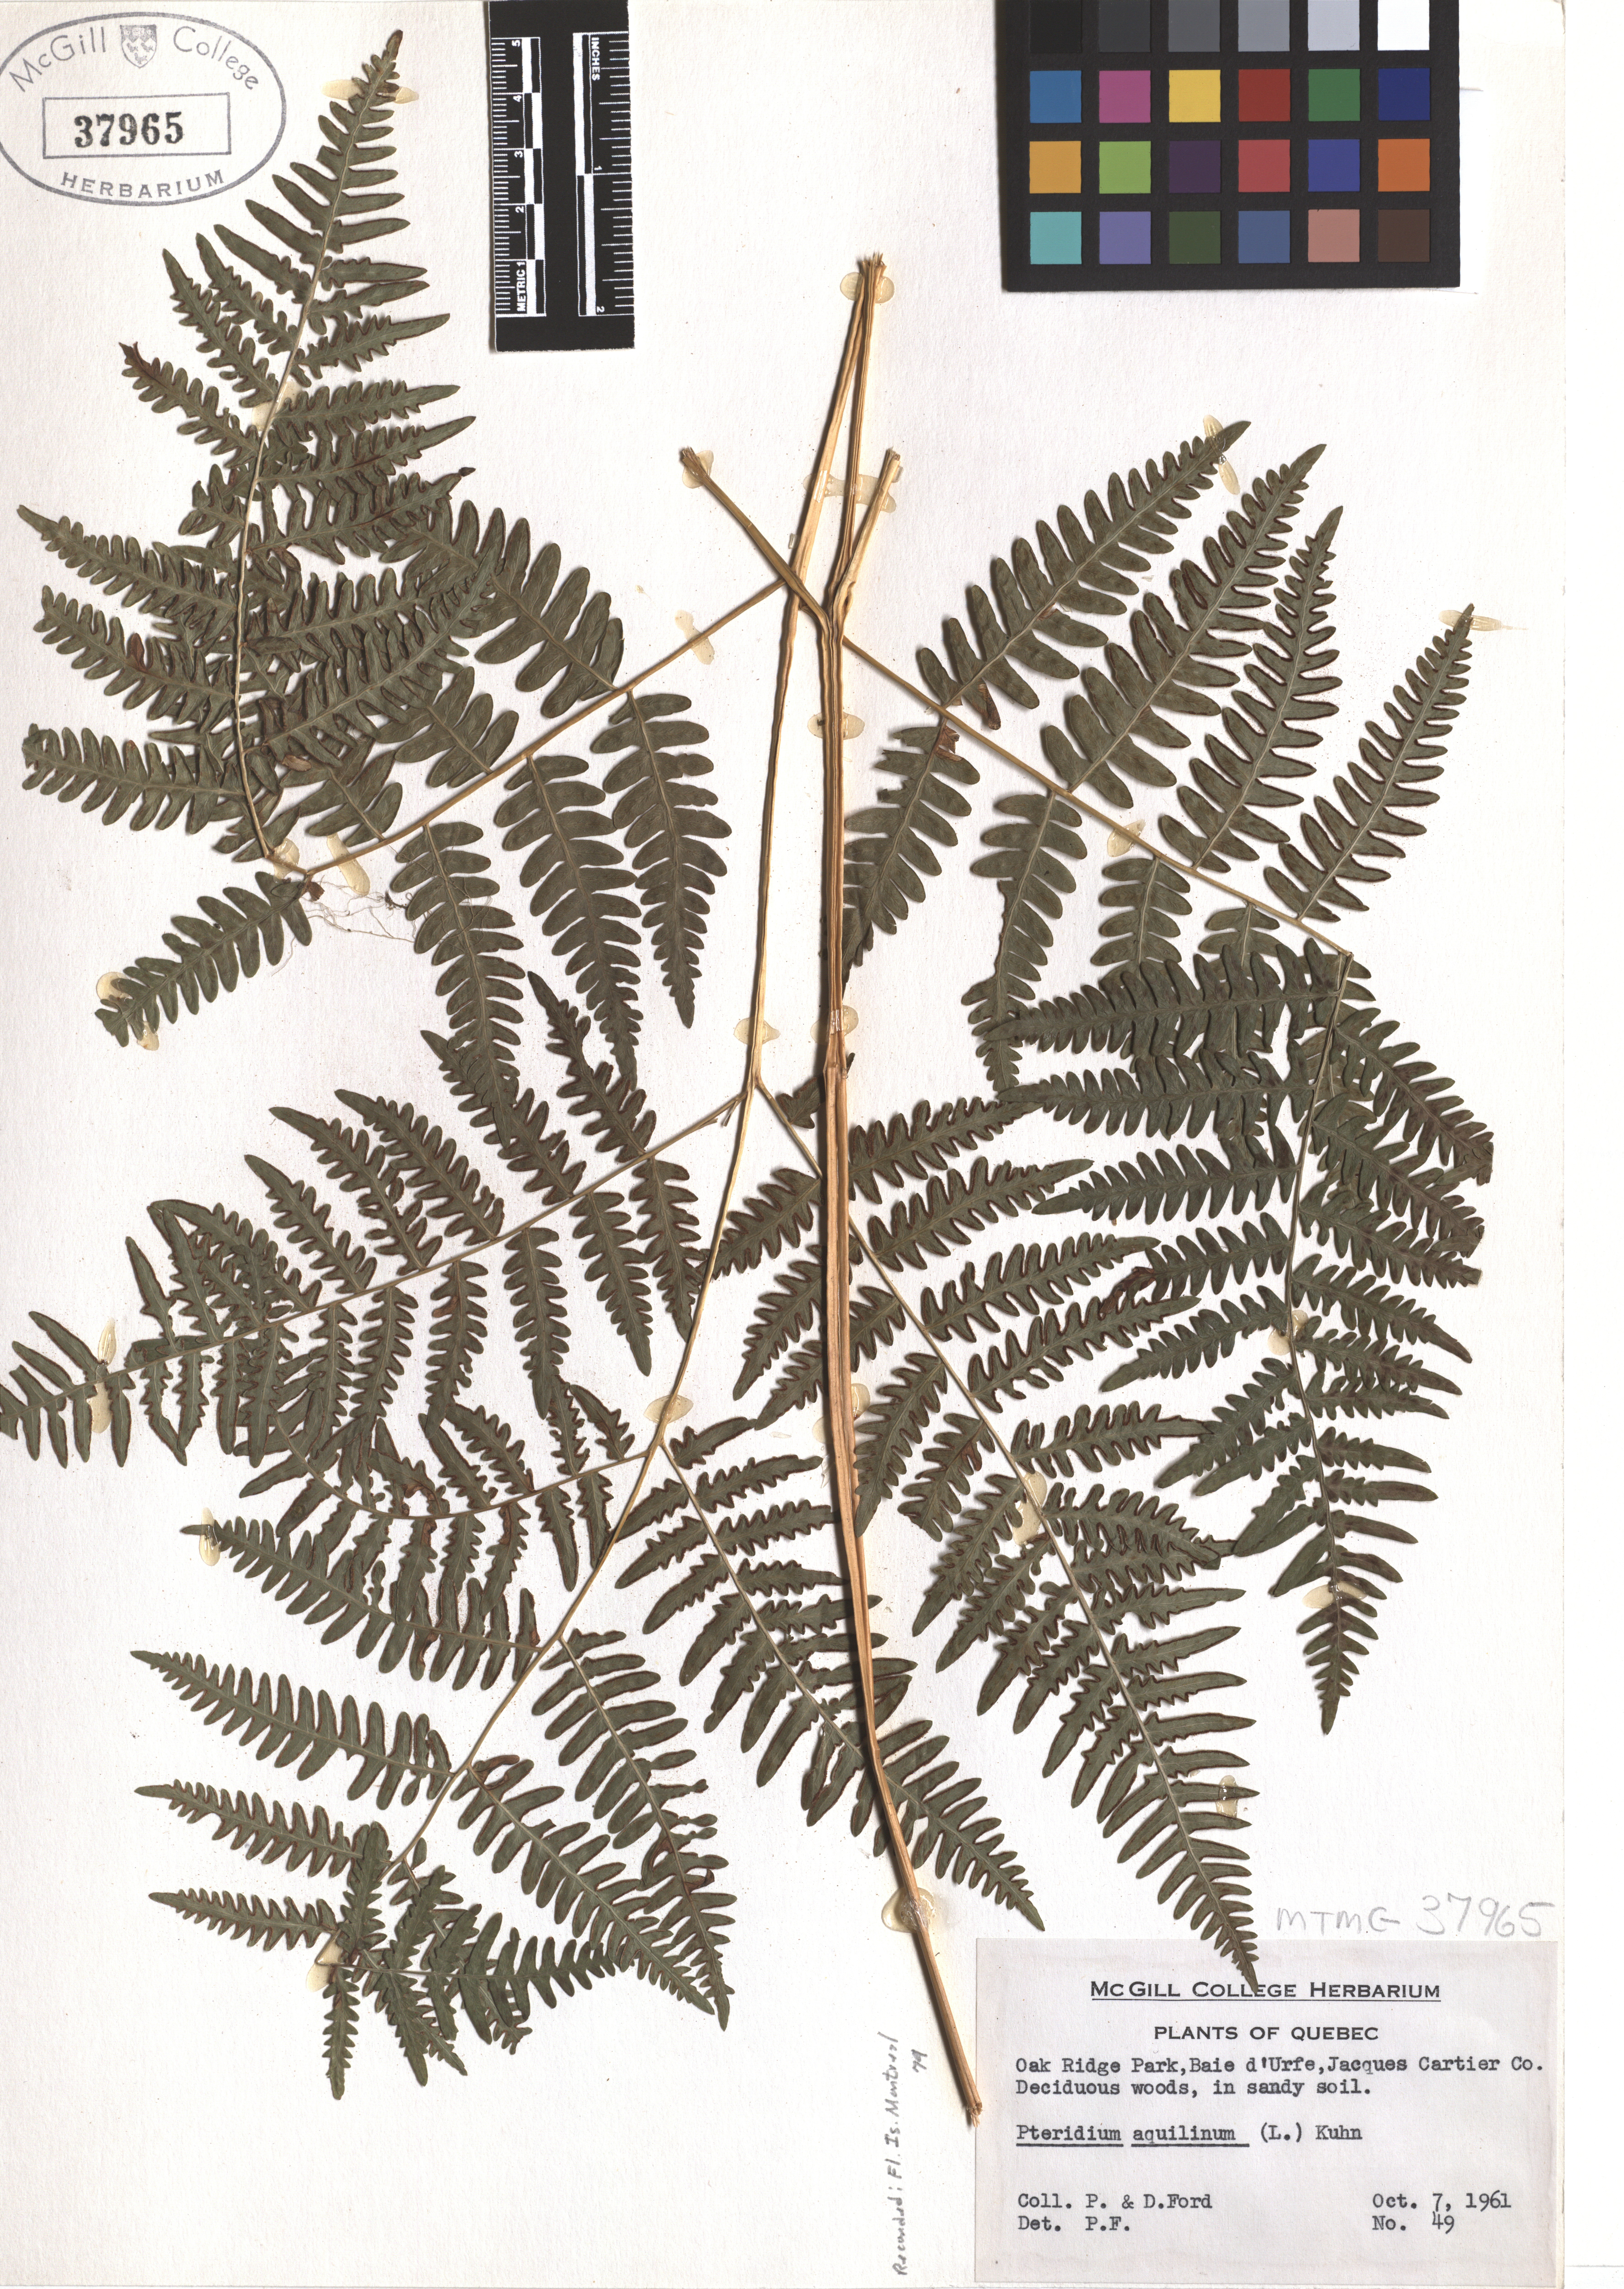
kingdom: Plantae
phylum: Tracheophyta
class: Polypodiopsida
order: Polypodiales
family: Dennstaedtiaceae
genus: Pteridium
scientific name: Pteridium aquilinum
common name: Bracken
